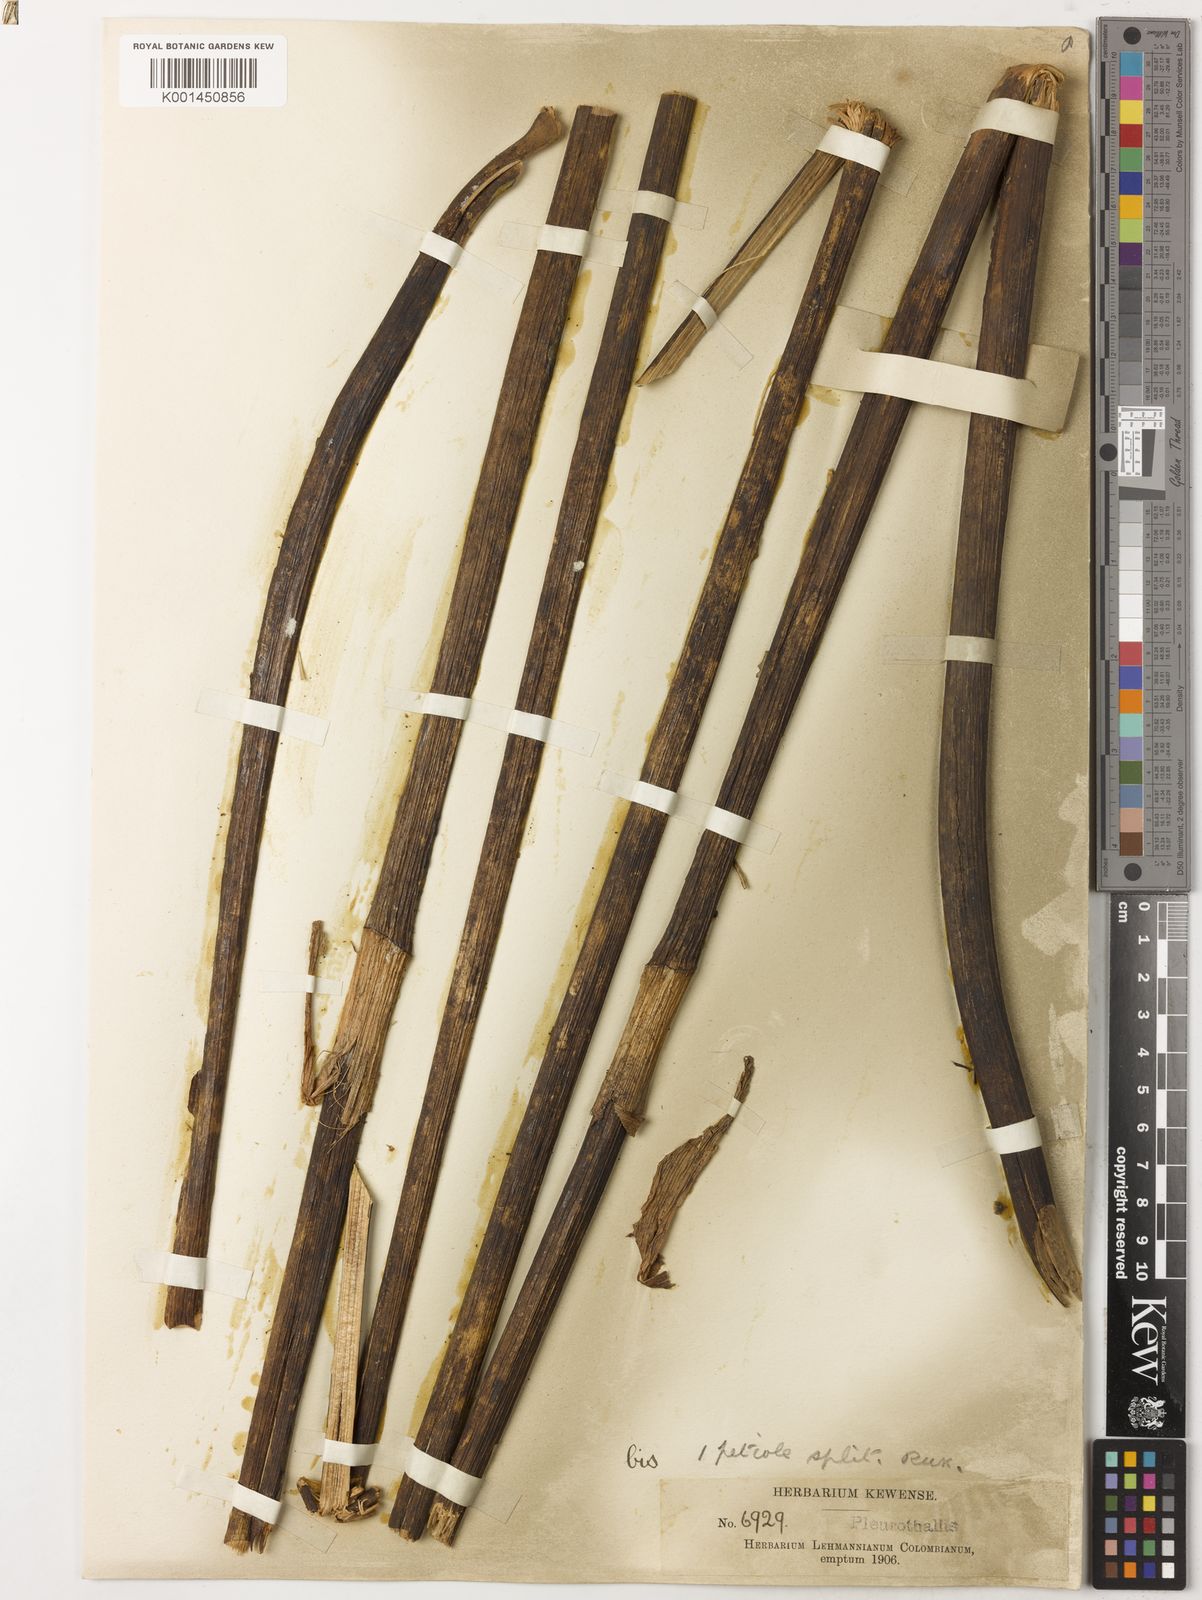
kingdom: Plantae
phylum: Tracheophyta
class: Liliopsida
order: Asparagales
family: Orchidaceae
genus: Pleurothallis
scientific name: Pleurothallis colossus
